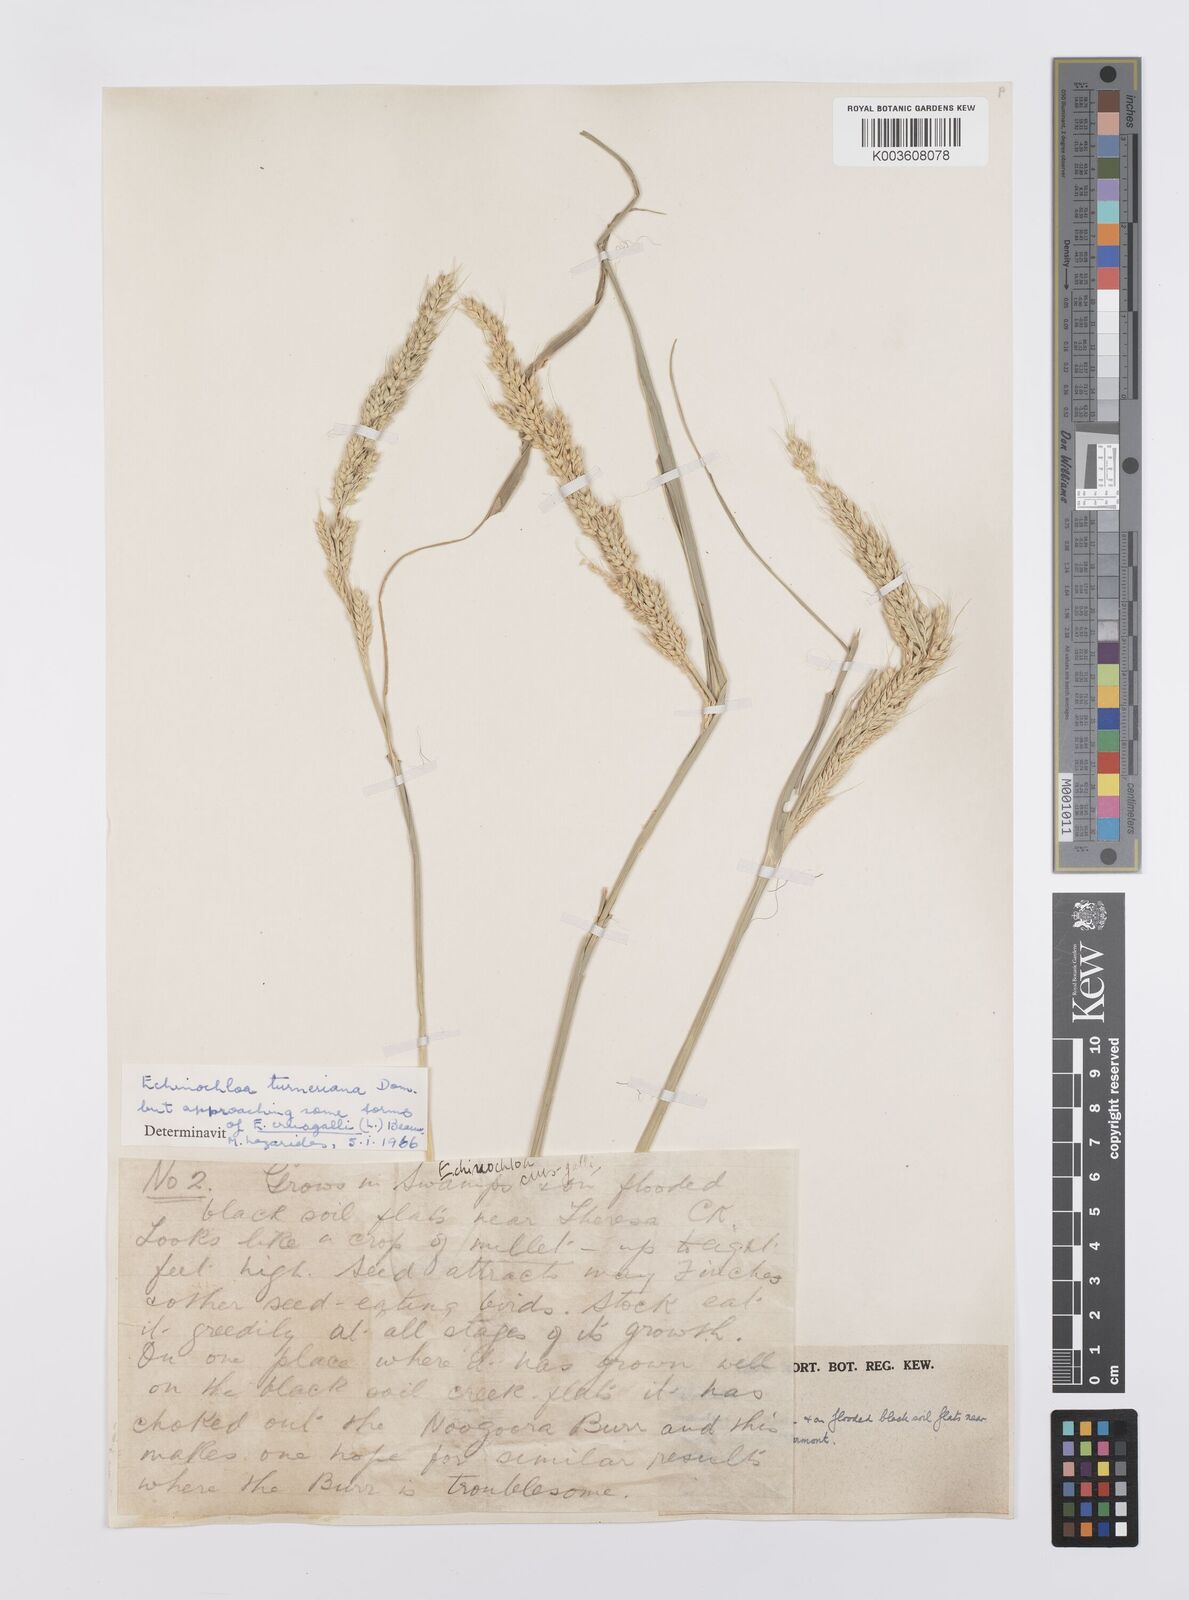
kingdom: Plantae
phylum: Tracheophyta
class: Liliopsida
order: Poales
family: Poaceae
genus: Echinochloa
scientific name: Echinochloa turneriana
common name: Channel millet
